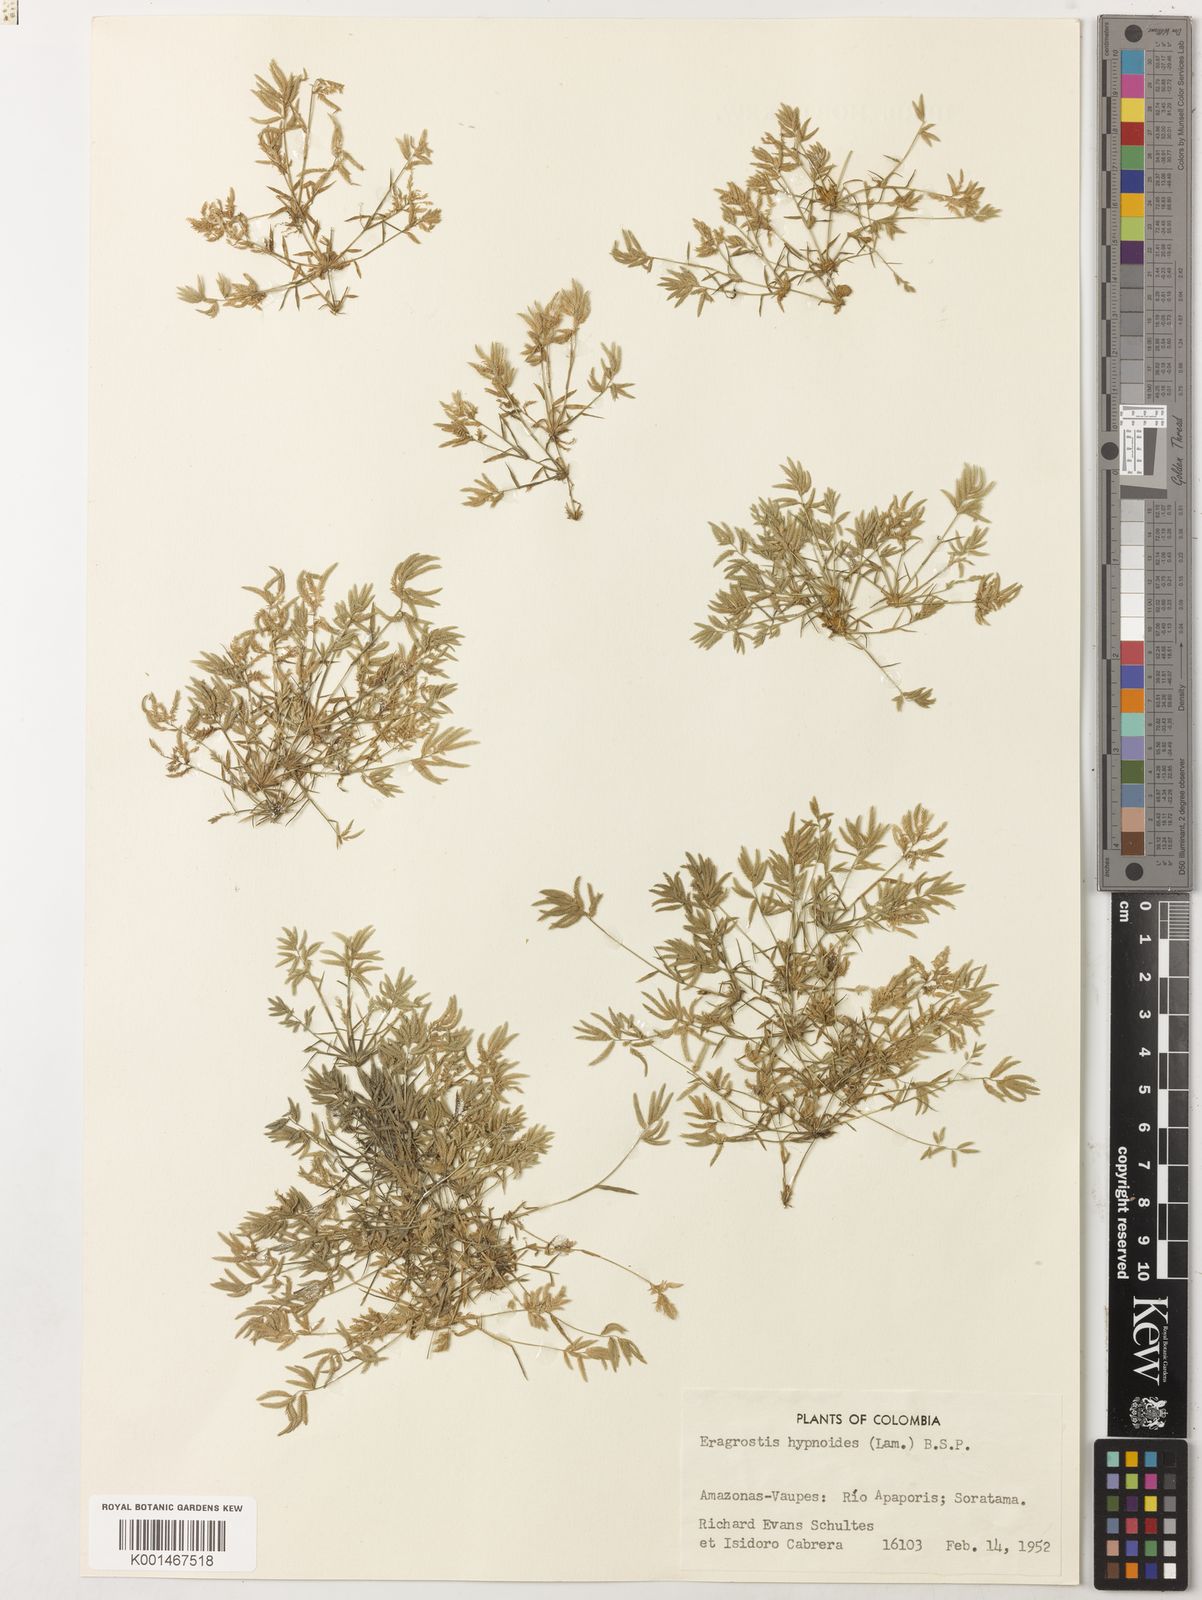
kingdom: Plantae
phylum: Tracheophyta
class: Liliopsida
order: Poales
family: Poaceae
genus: Eragrostis
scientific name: Eragrostis hypnoides
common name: Creeping love grass
